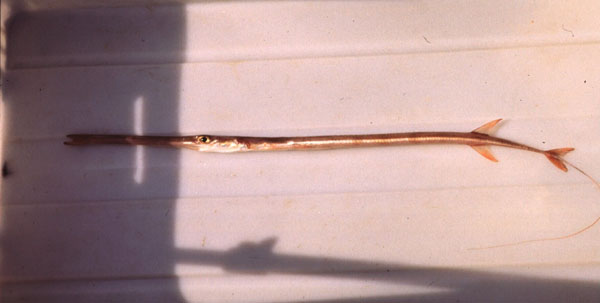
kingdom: Animalia
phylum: Chordata
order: Syngnathiformes
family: Fistulariidae
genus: Fistularia
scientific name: Fistularia petimba
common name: Red cornetfish
